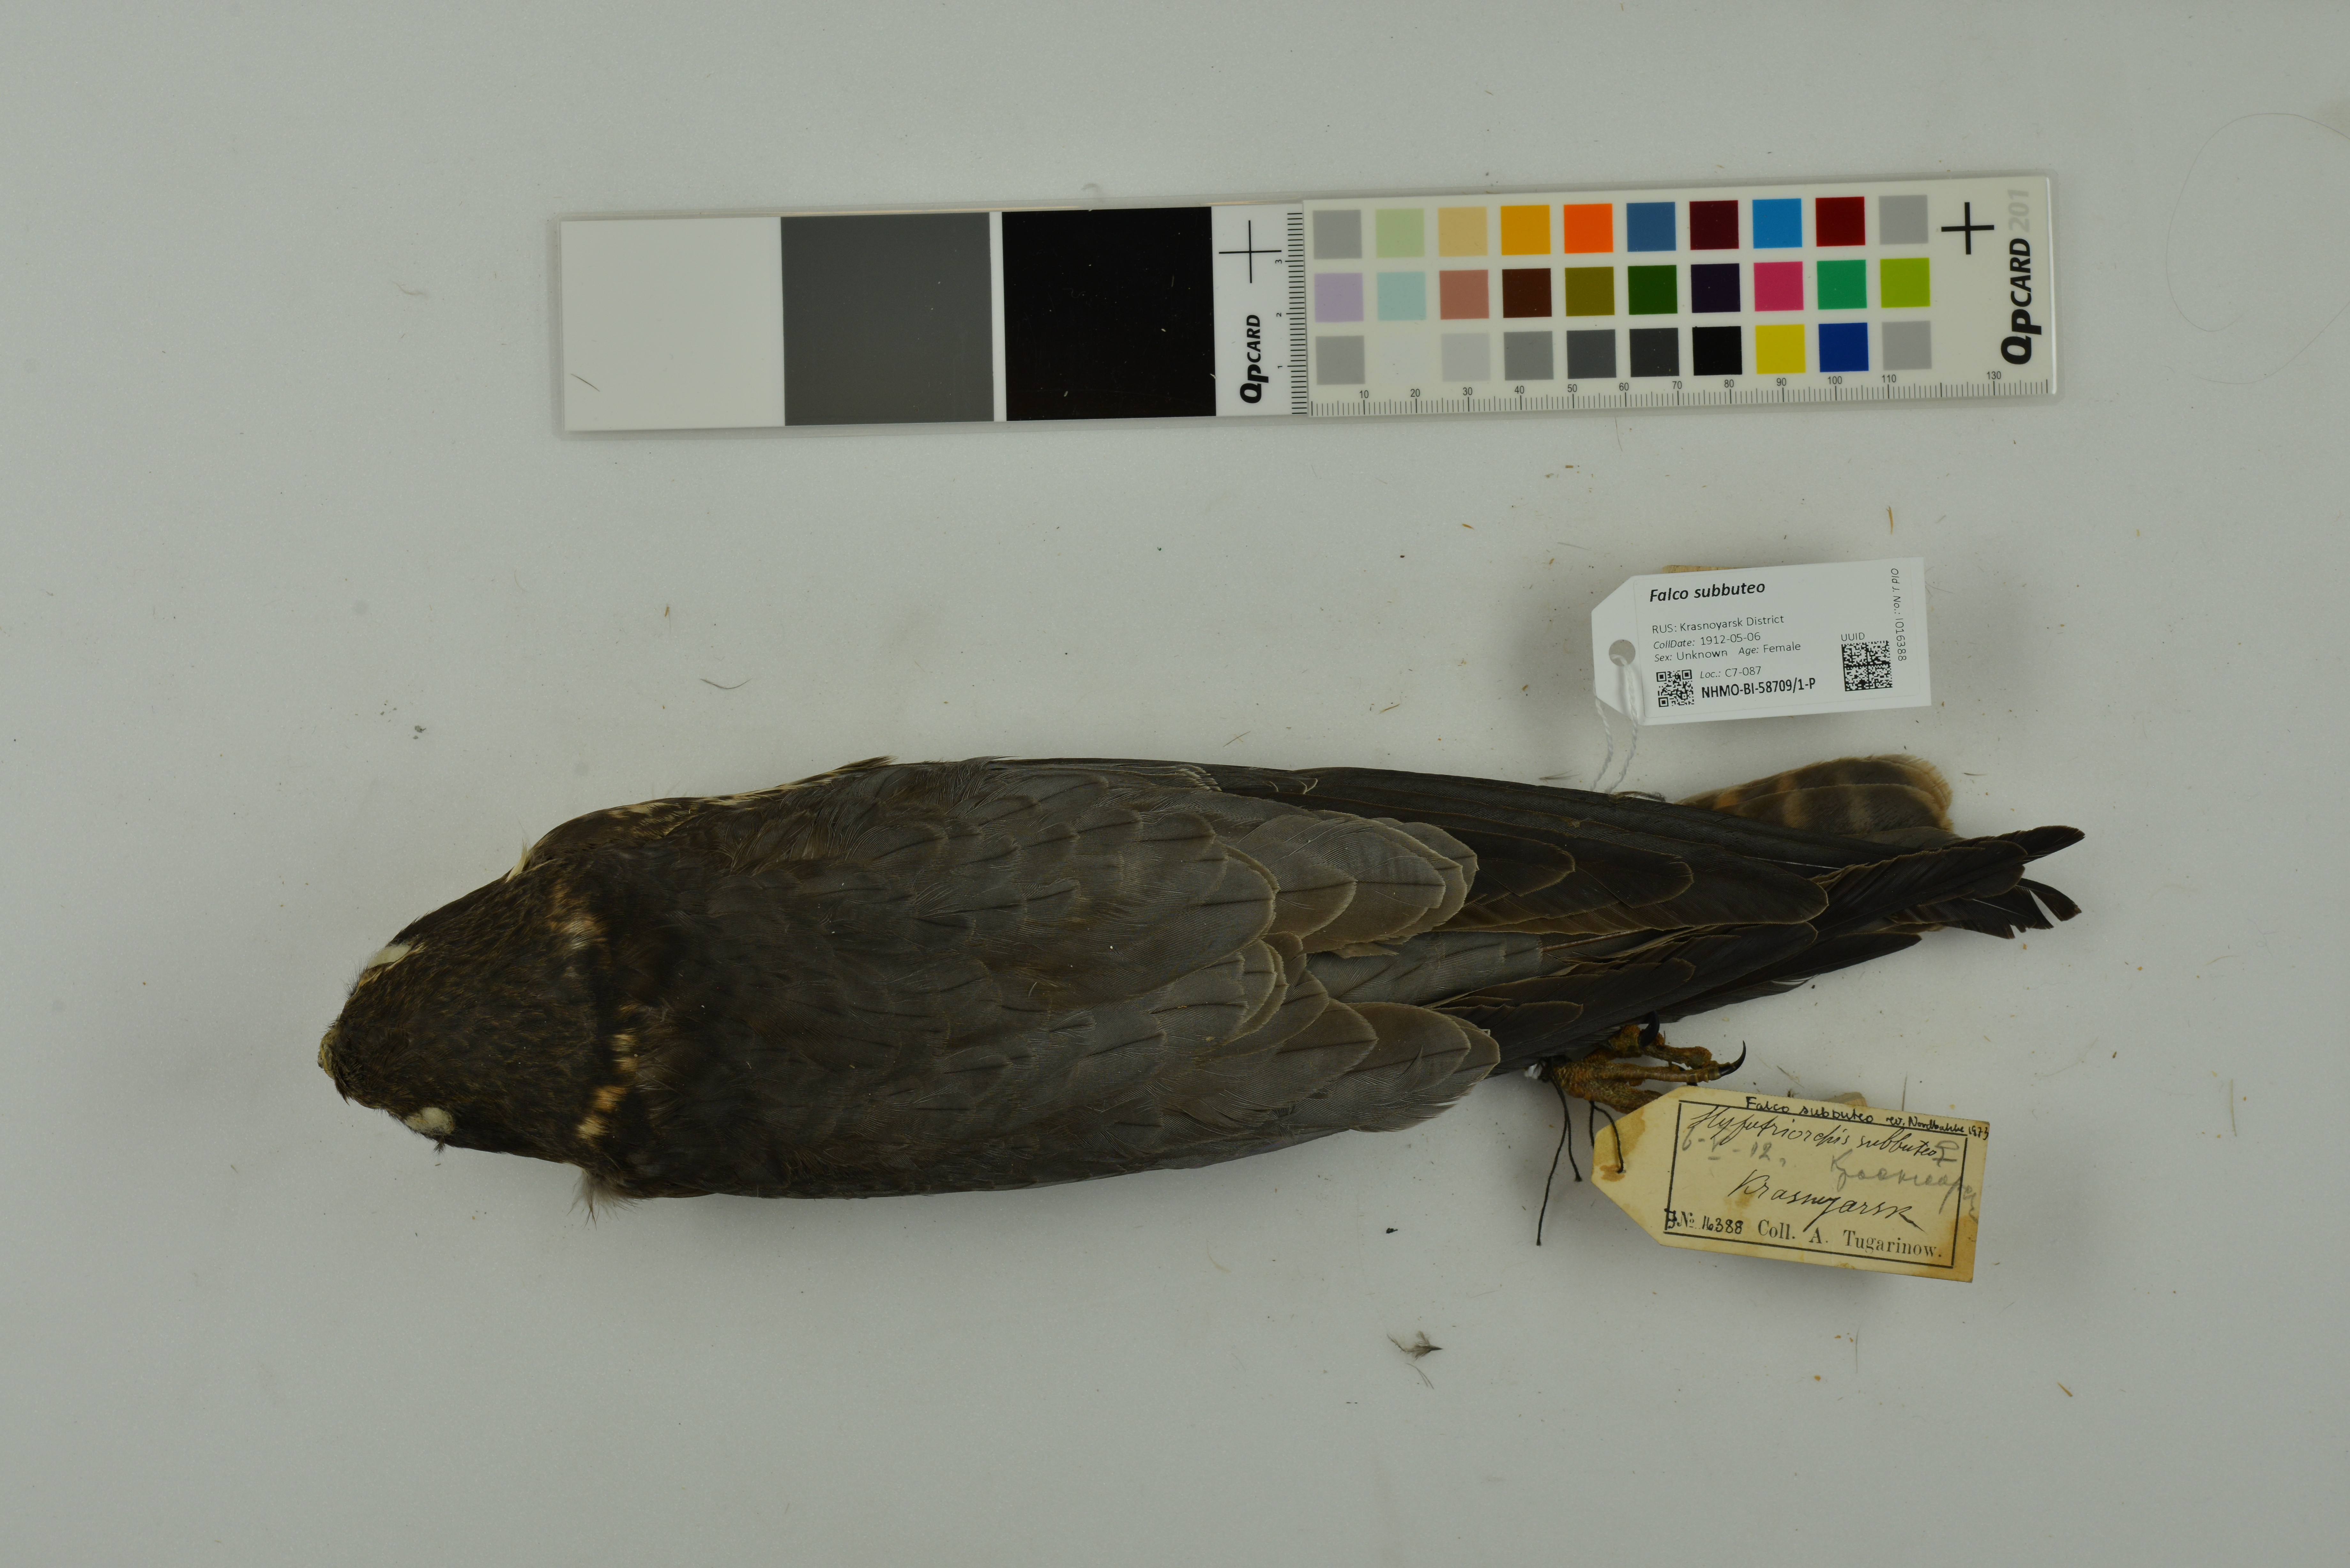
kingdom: Animalia
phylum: Chordata
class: Aves
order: Falconiformes
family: Falconidae
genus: Falco
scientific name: Falco subbuteo
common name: Eurasian hobby
